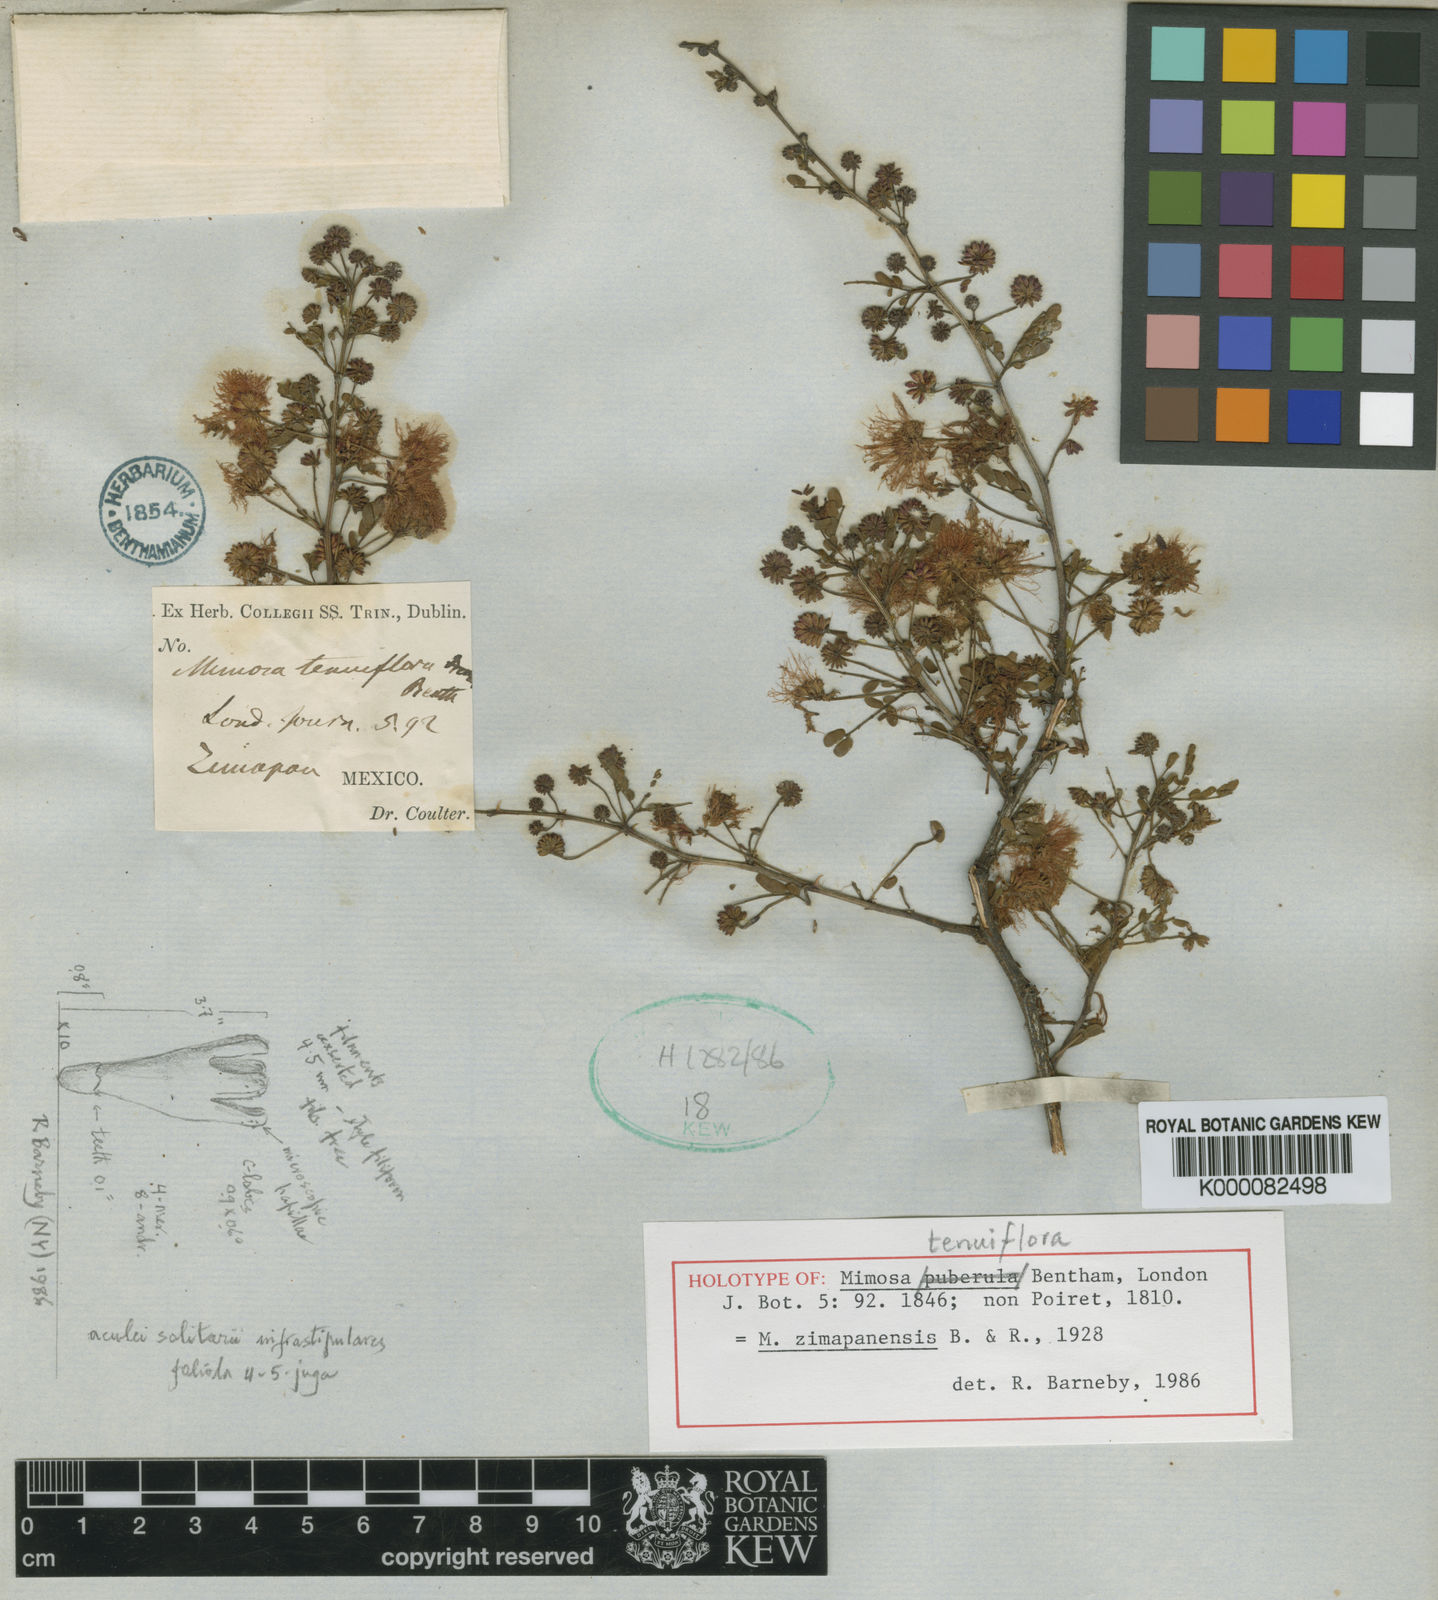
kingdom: Plantae
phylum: Tracheophyta
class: Magnoliopsida
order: Fabales
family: Fabaceae
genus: Mimosa
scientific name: Mimosa zimapanensis
